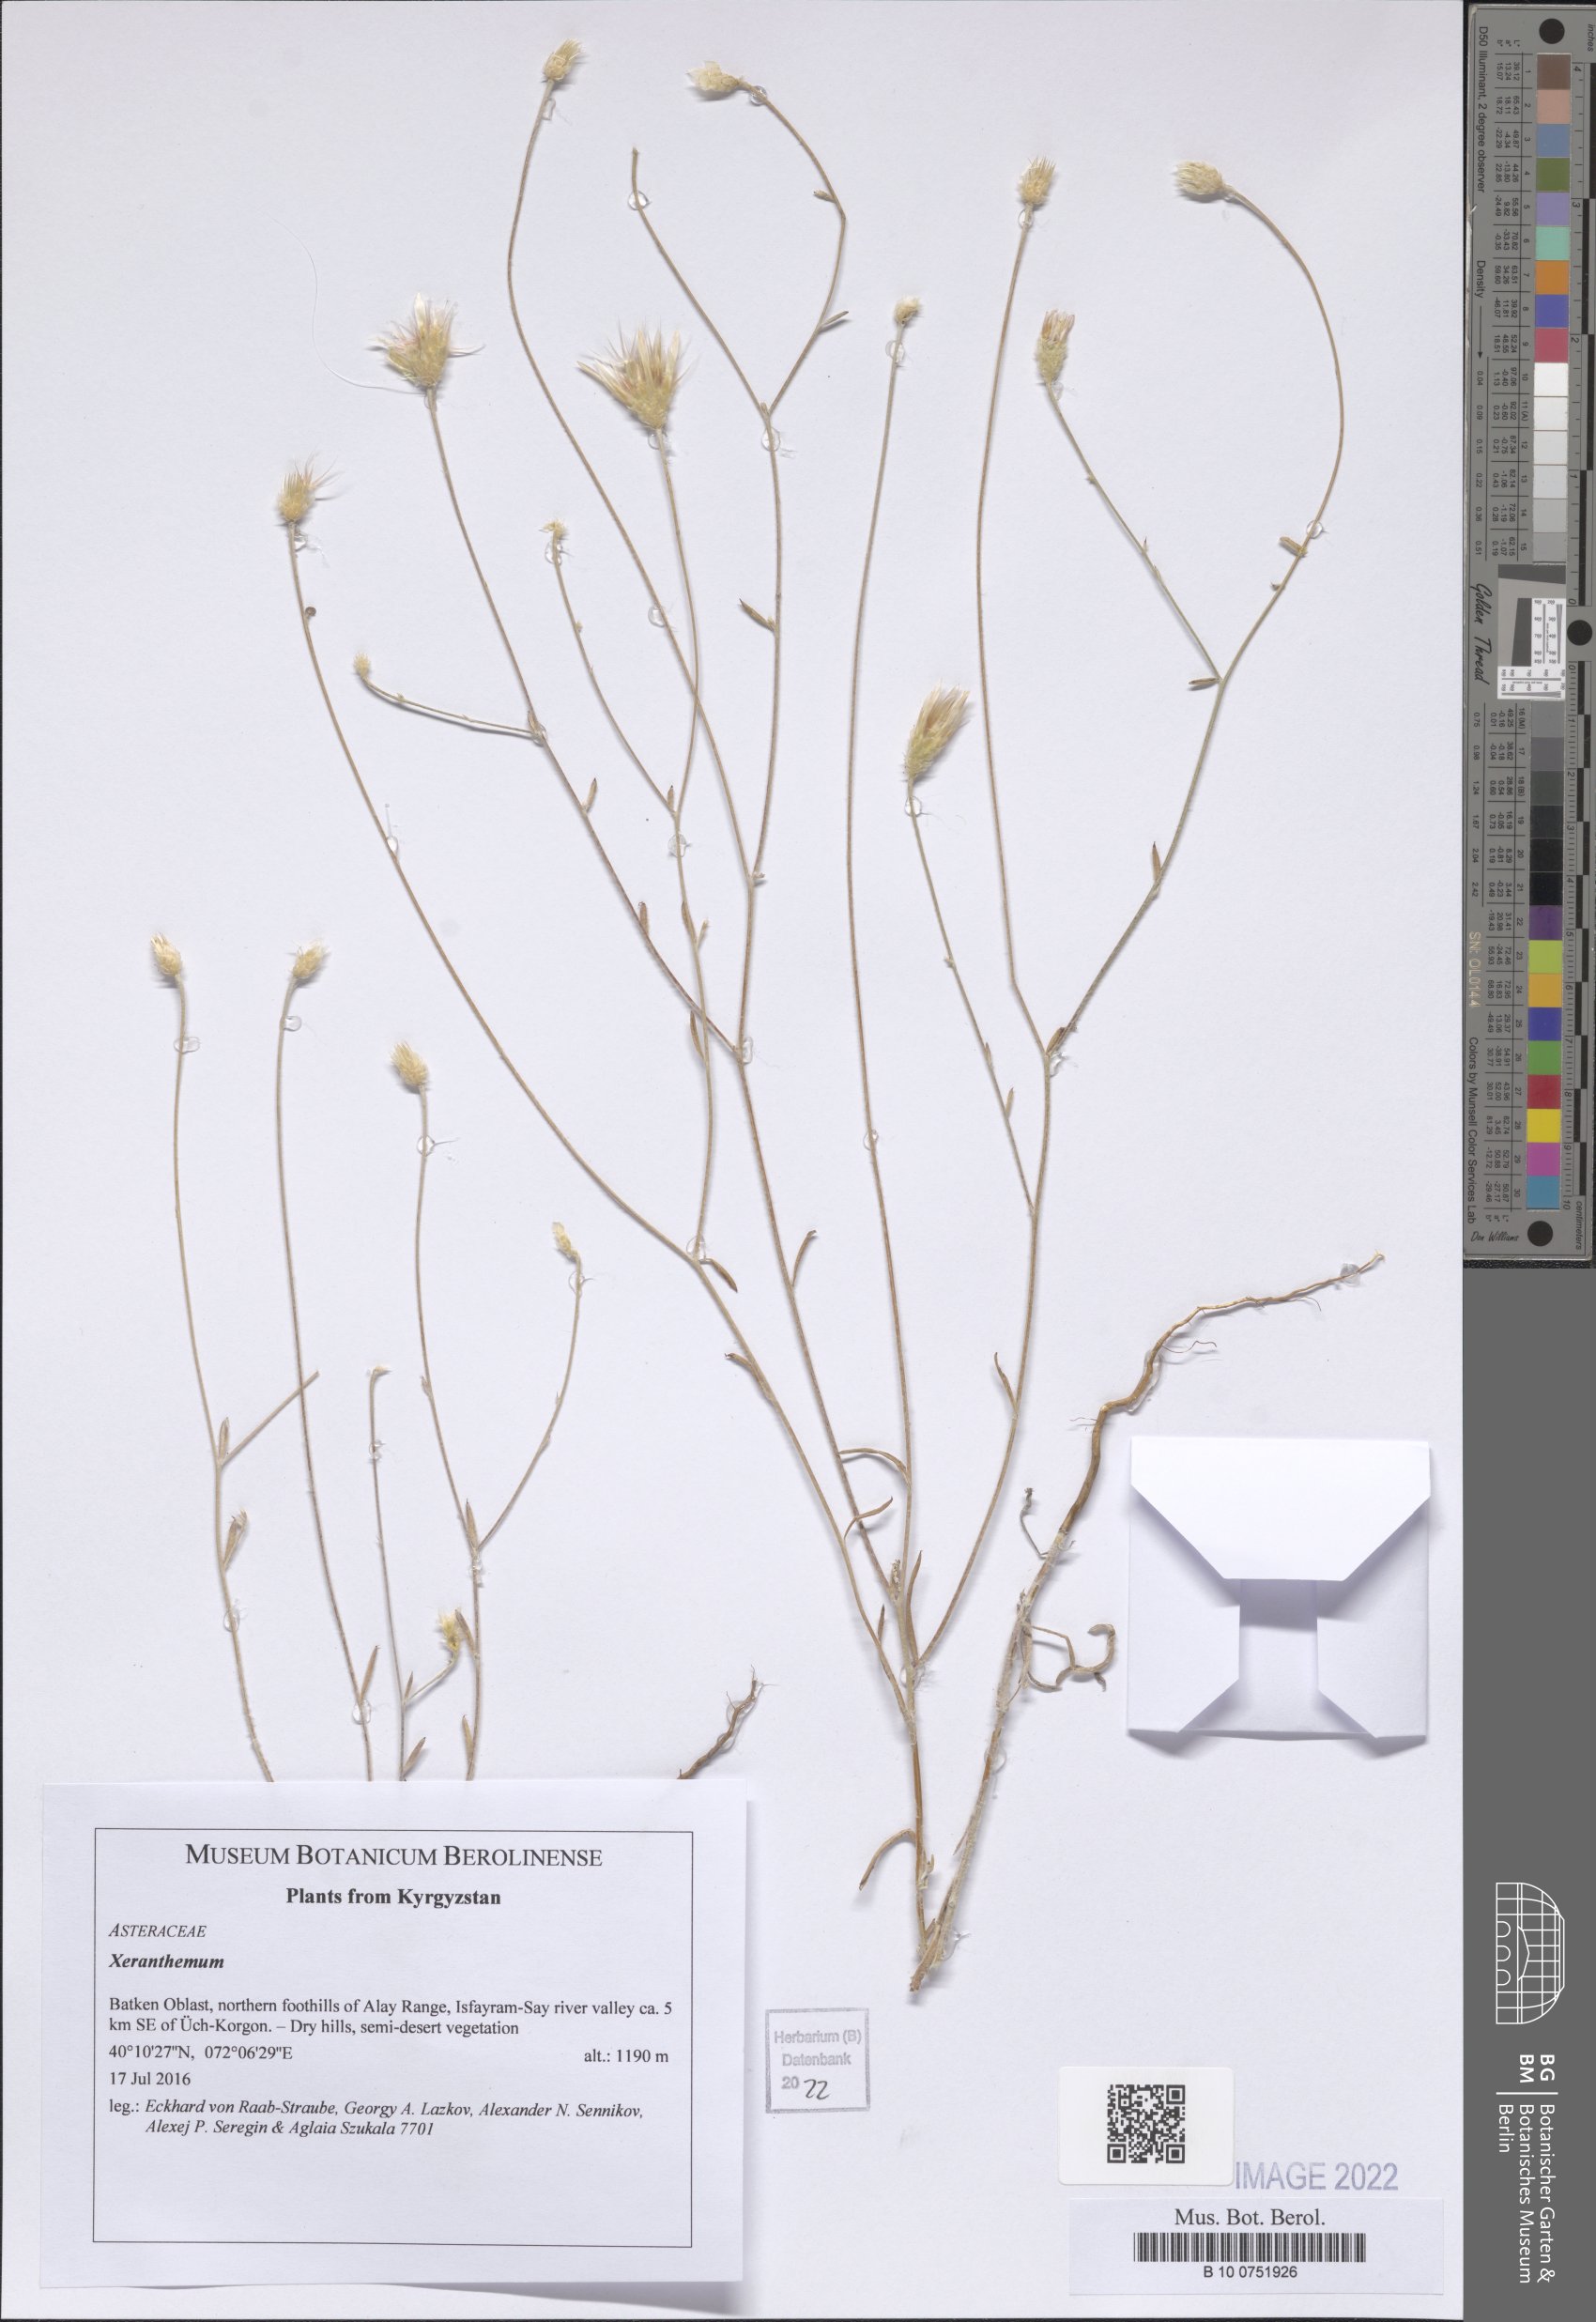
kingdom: Plantae
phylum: Tracheophyta
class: Magnoliopsida
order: Asterales
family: Asteraceae
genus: Taraxacum
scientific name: Taraxacum
